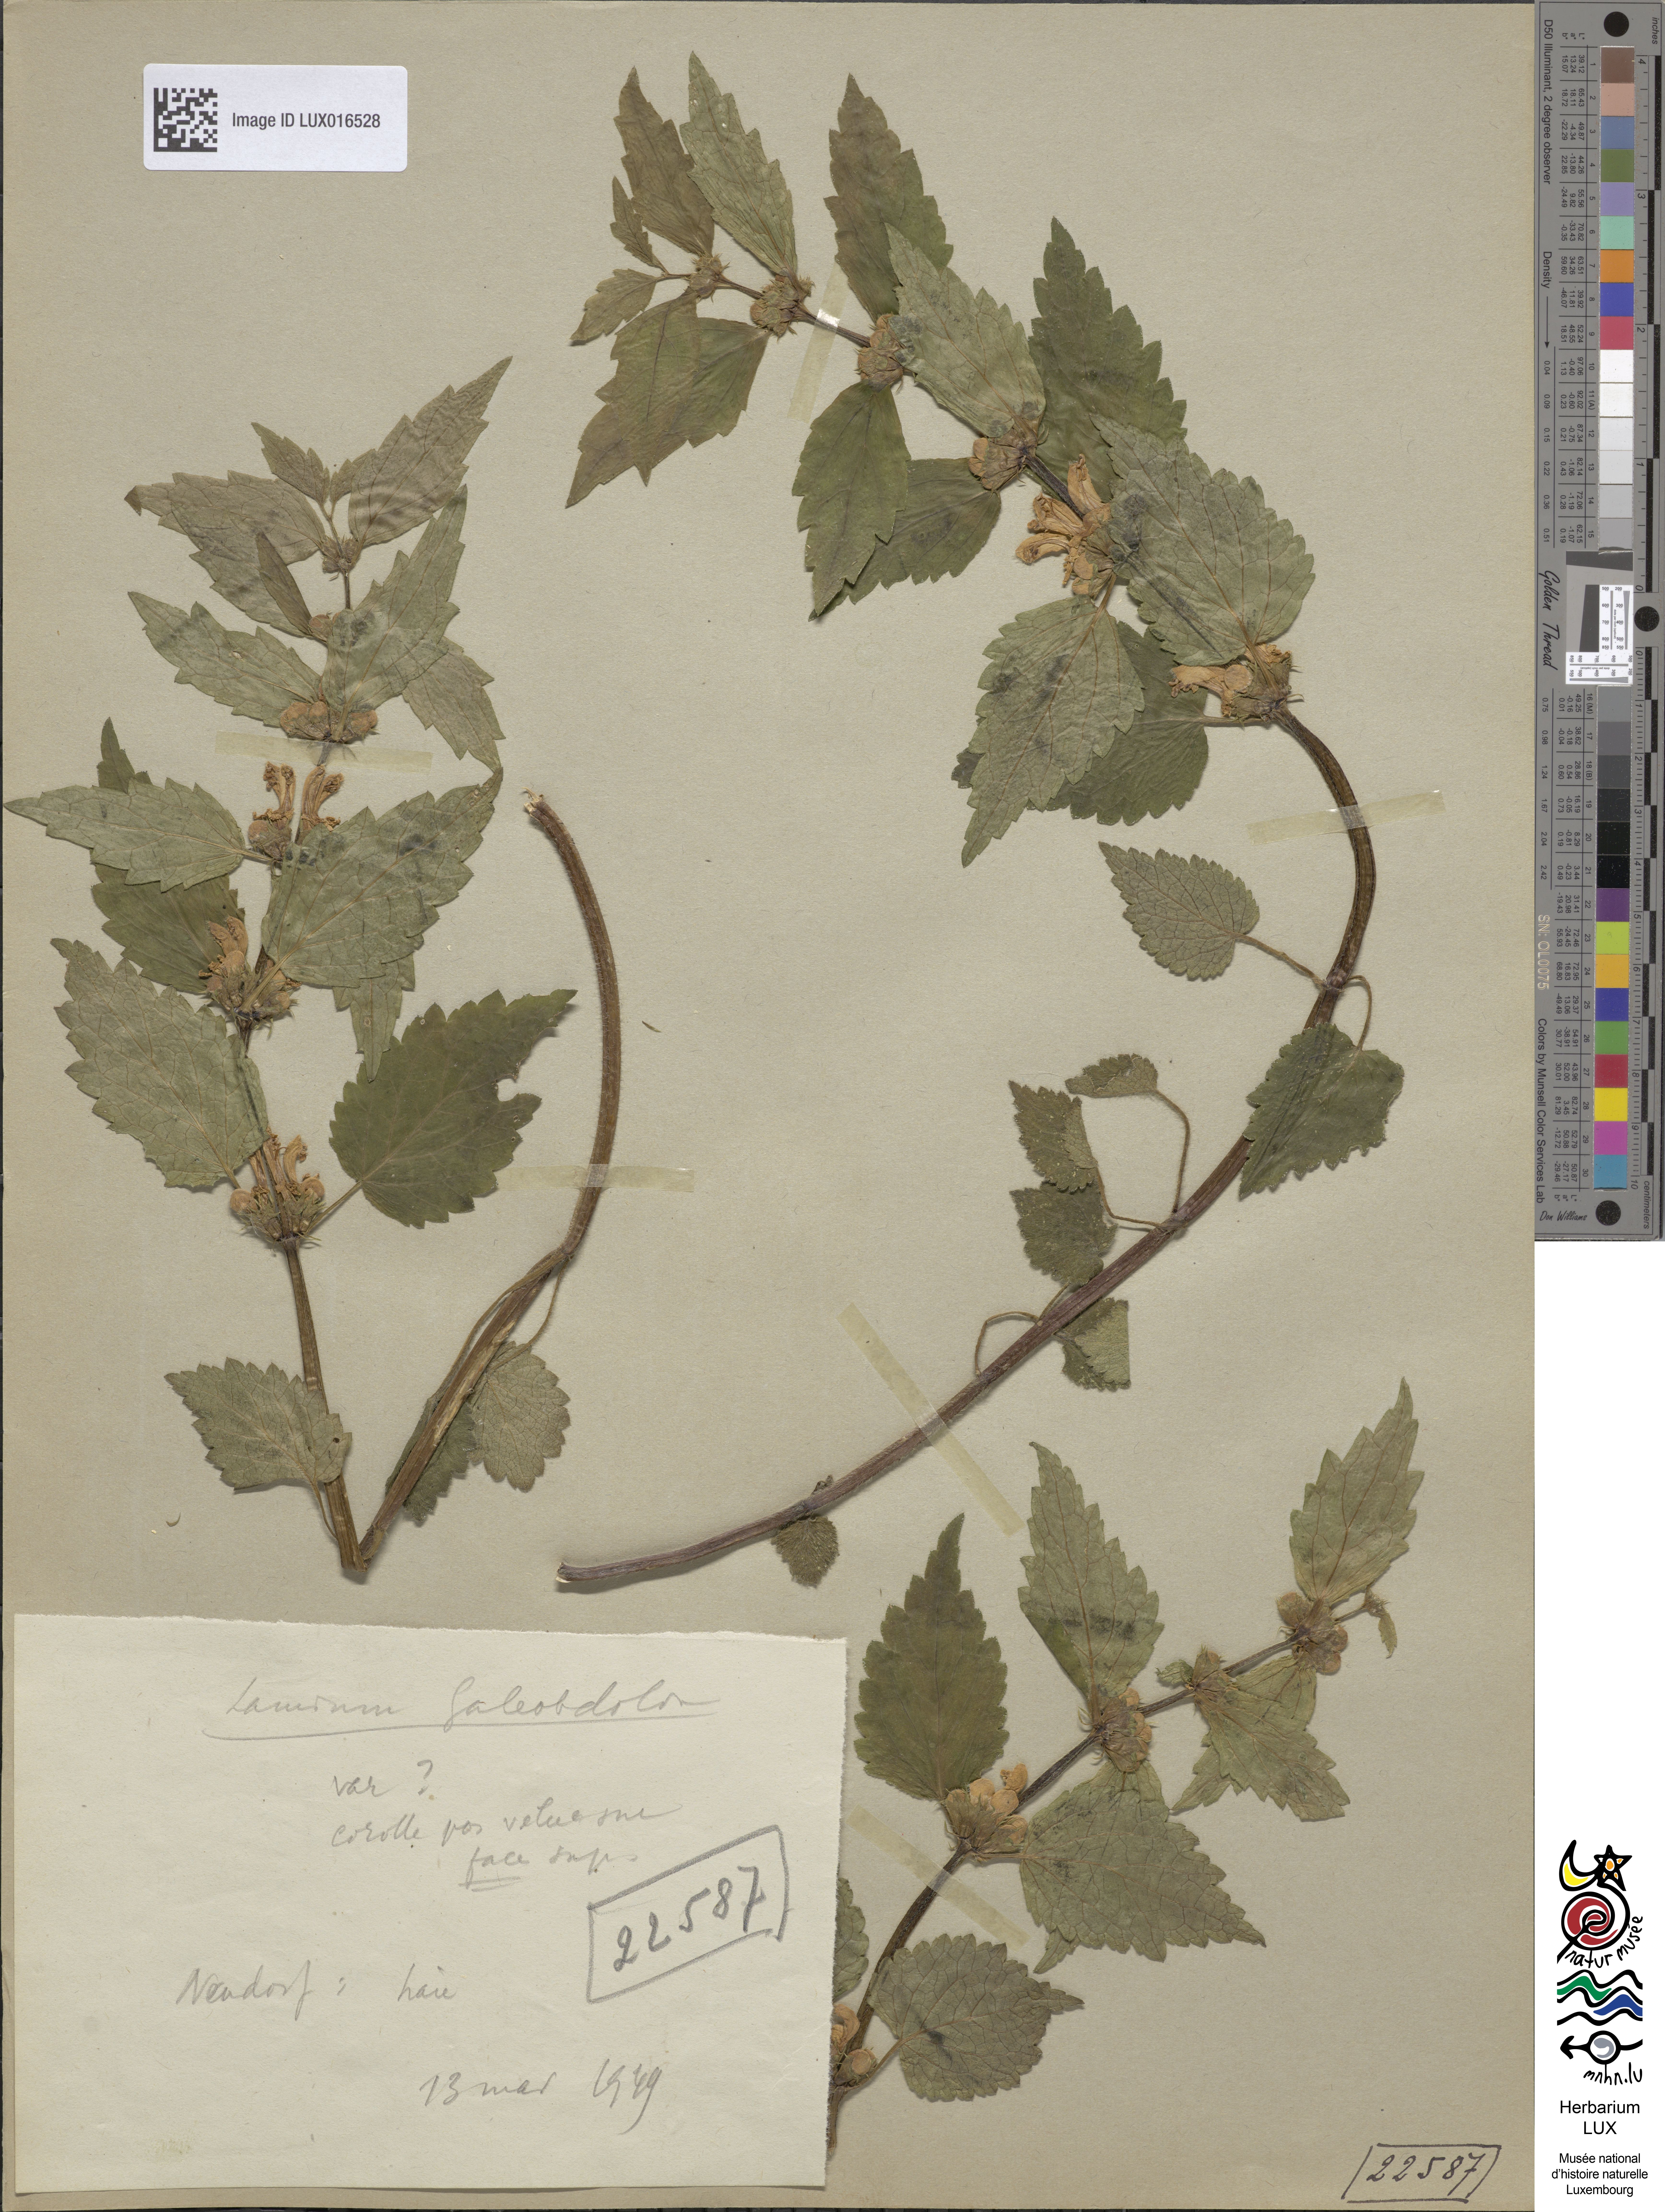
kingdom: Plantae
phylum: Tracheophyta
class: Magnoliopsida
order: Lamiales
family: Lamiaceae
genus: Lamium
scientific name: Lamium galeobdolon
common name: Yellow archangel
